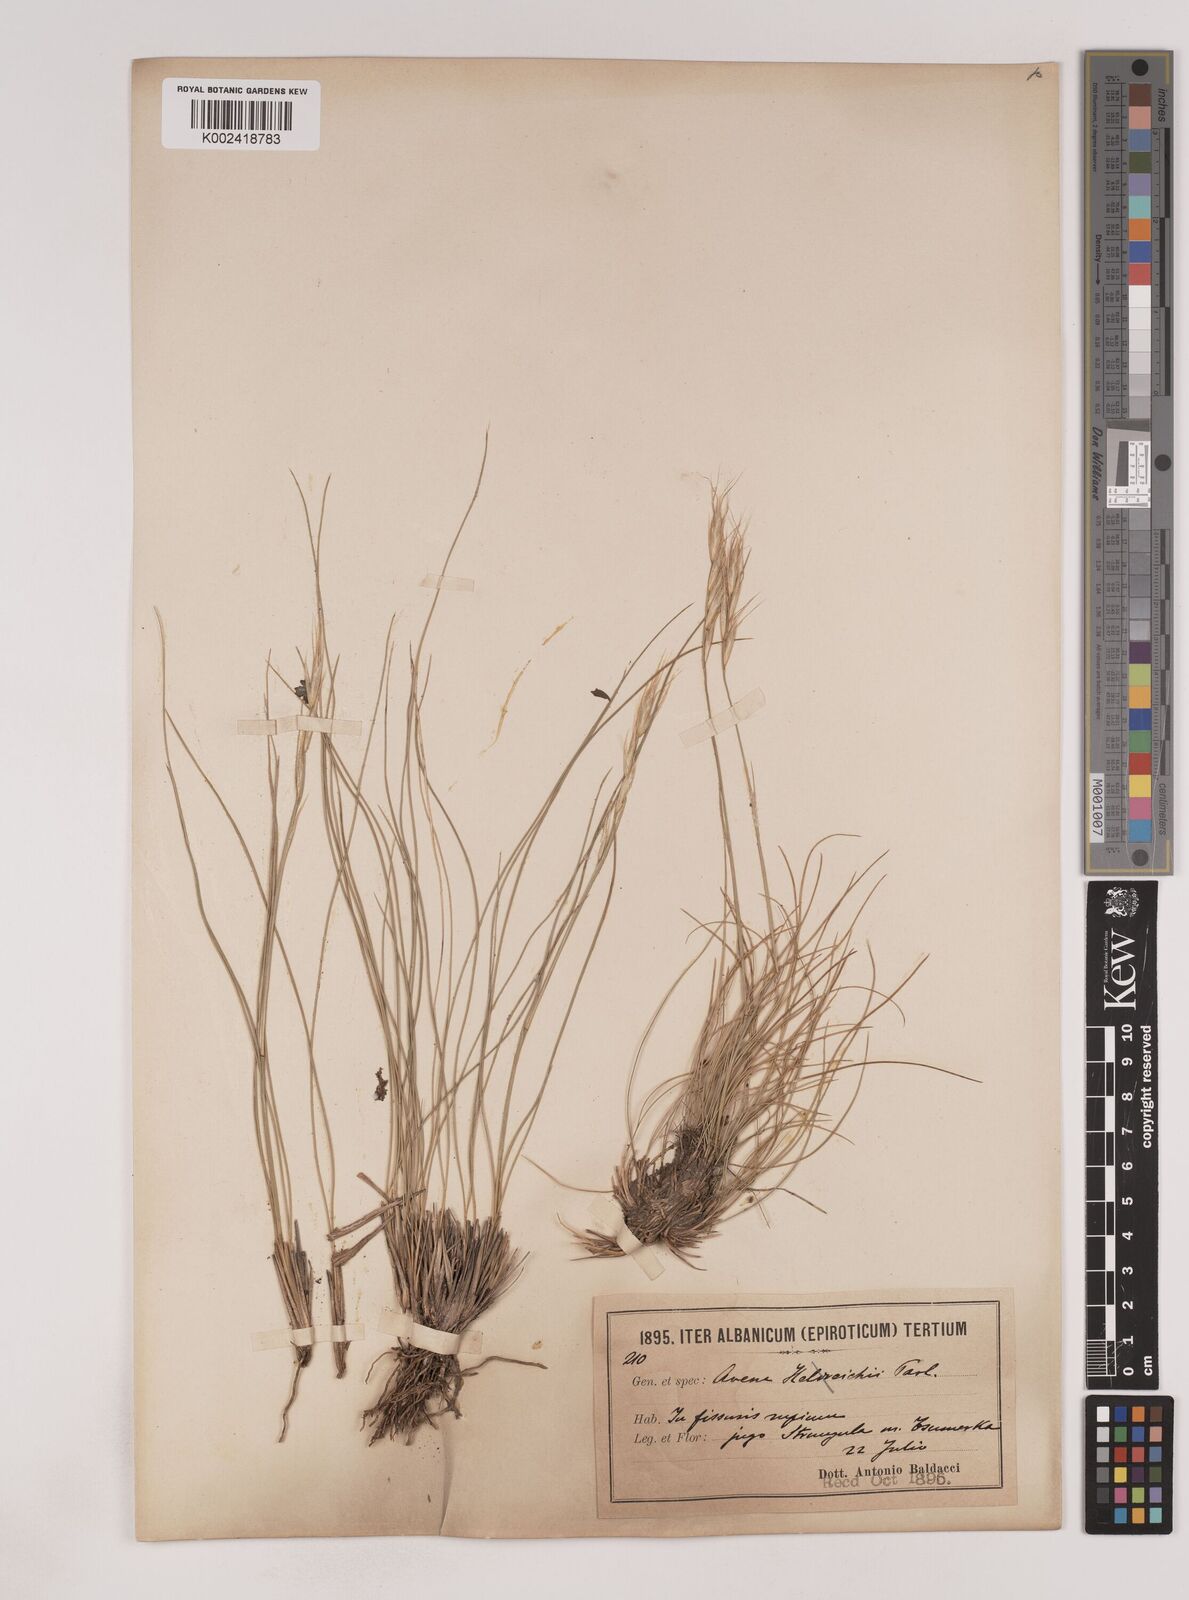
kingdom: Plantae
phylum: Tracheophyta
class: Liliopsida
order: Poales
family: Poaceae
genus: Danthoniastrum
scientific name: Danthoniastrum compactum
